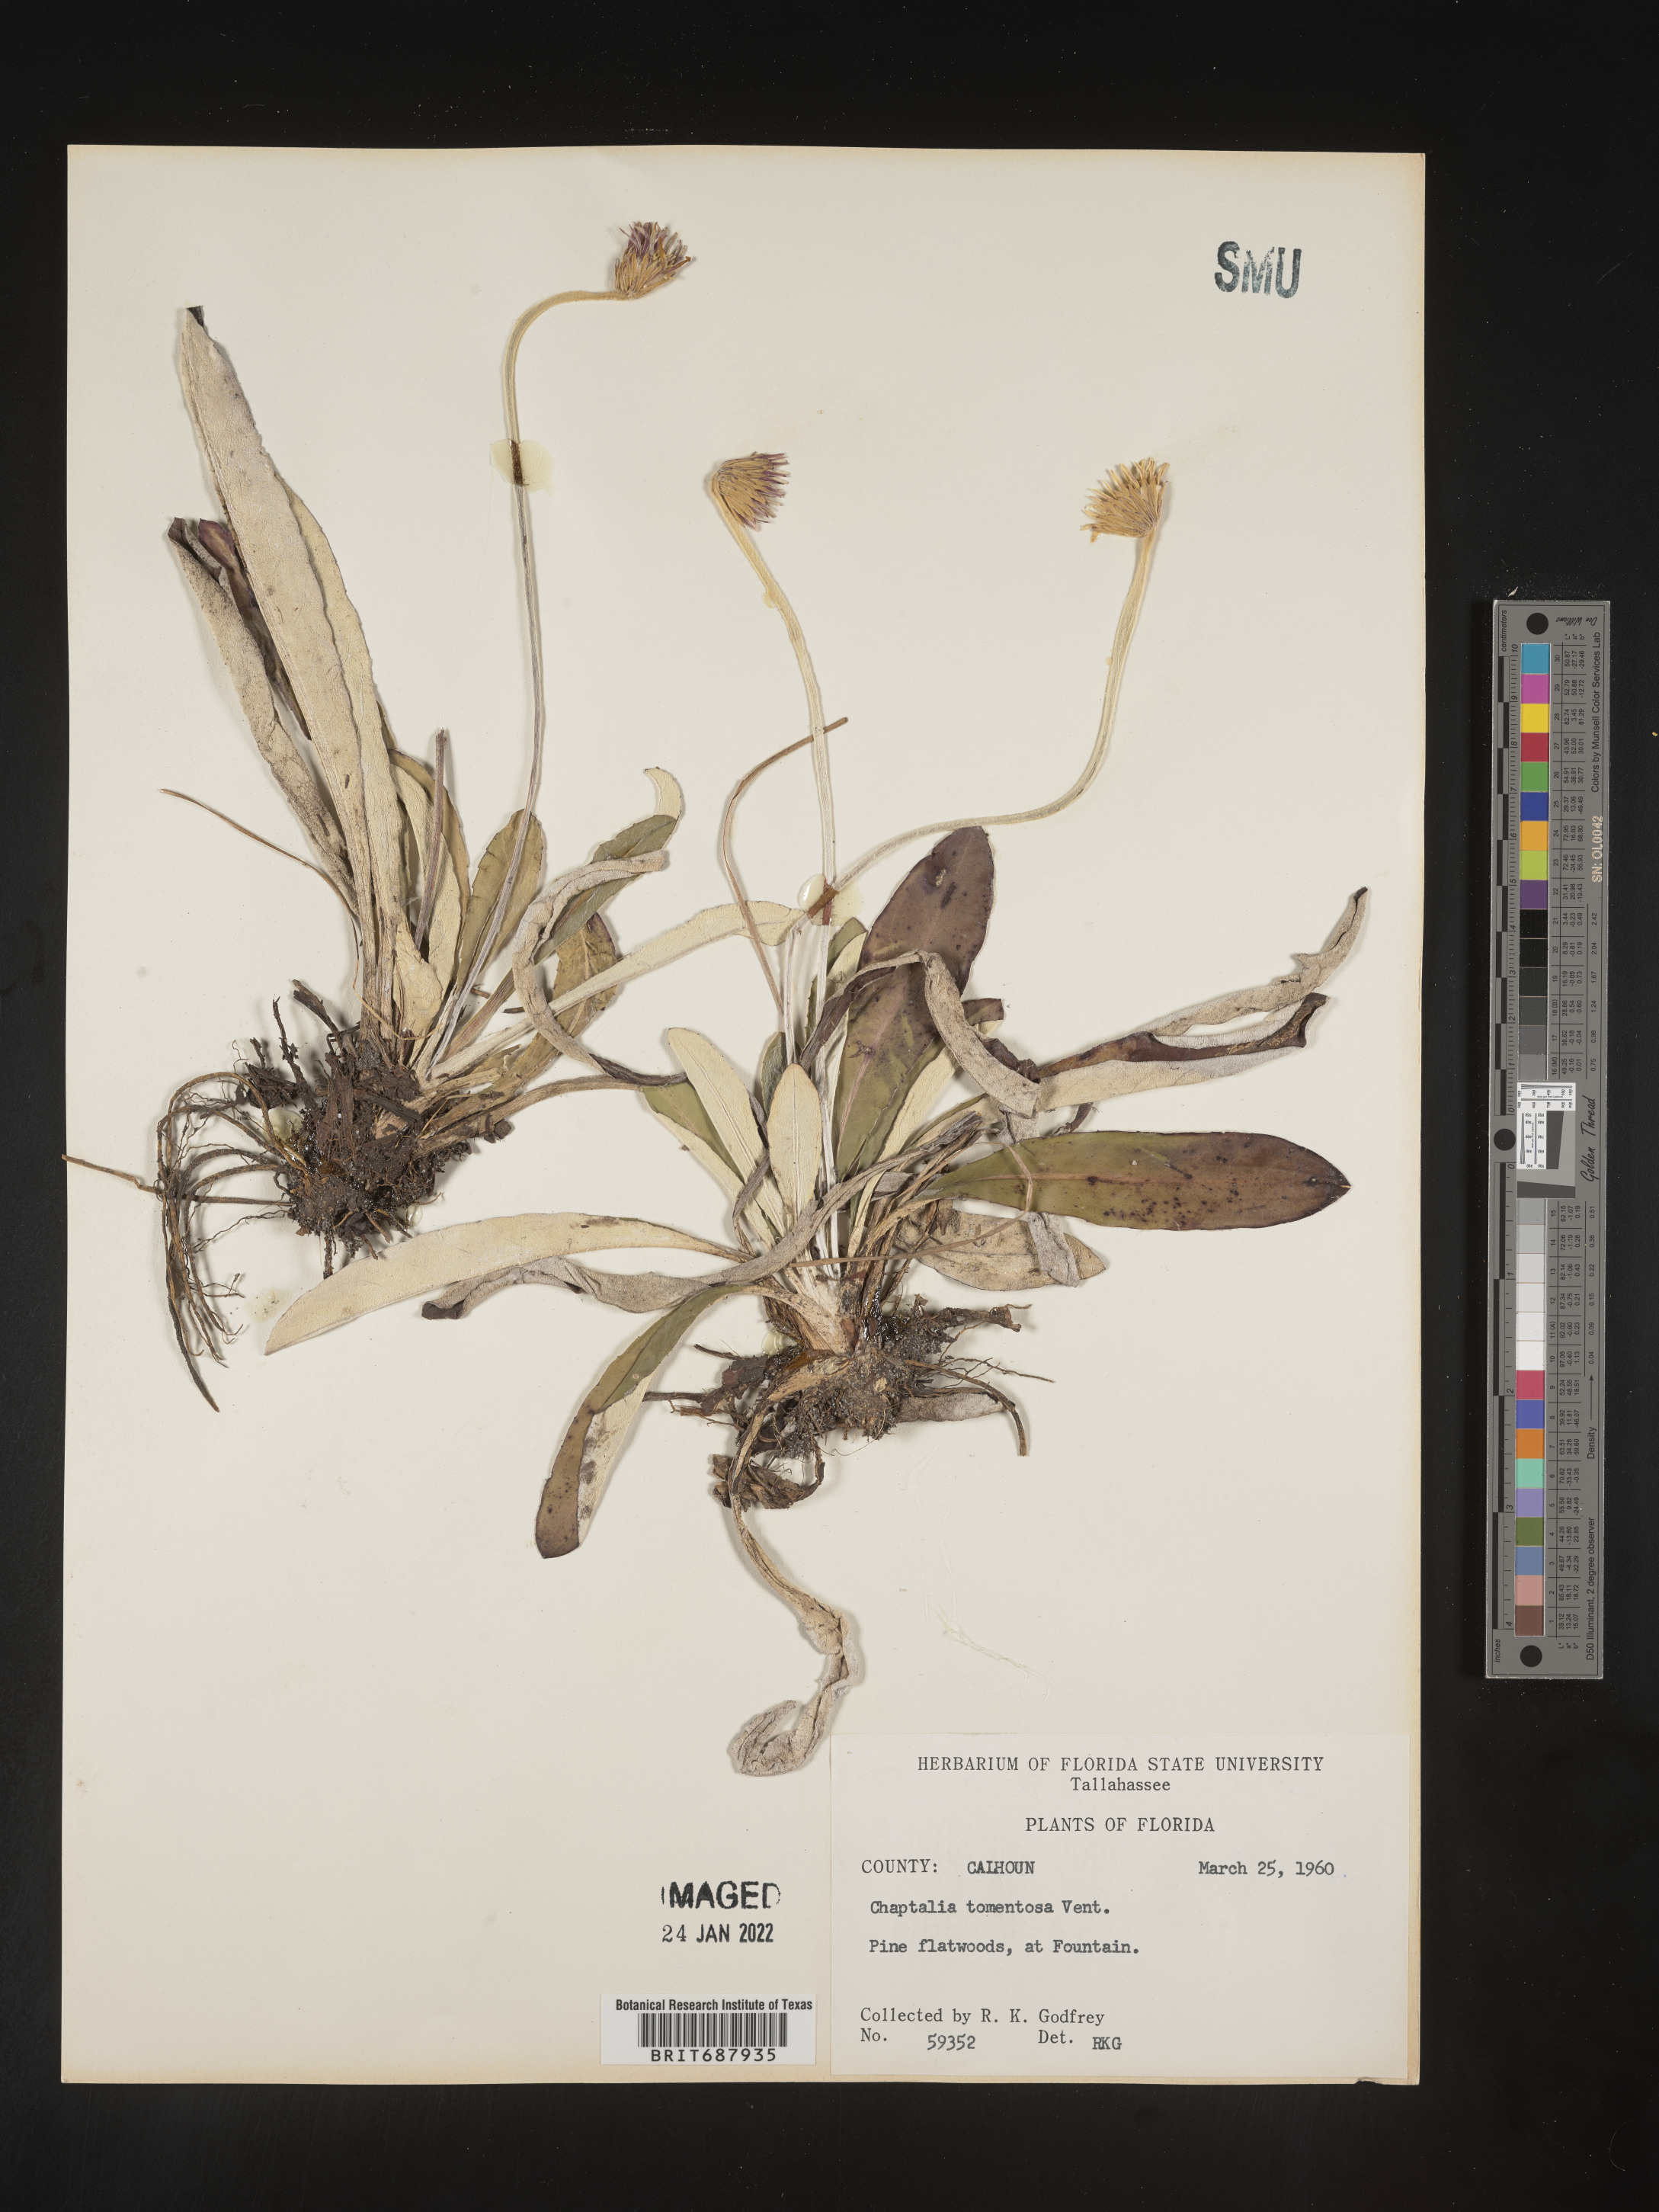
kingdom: Plantae
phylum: Tracheophyta
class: Magnoliopsida
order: Asterales
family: Asteraceae
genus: Chaptalia
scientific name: Chaptalia tomentosa
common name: Woolly sunbonnet
